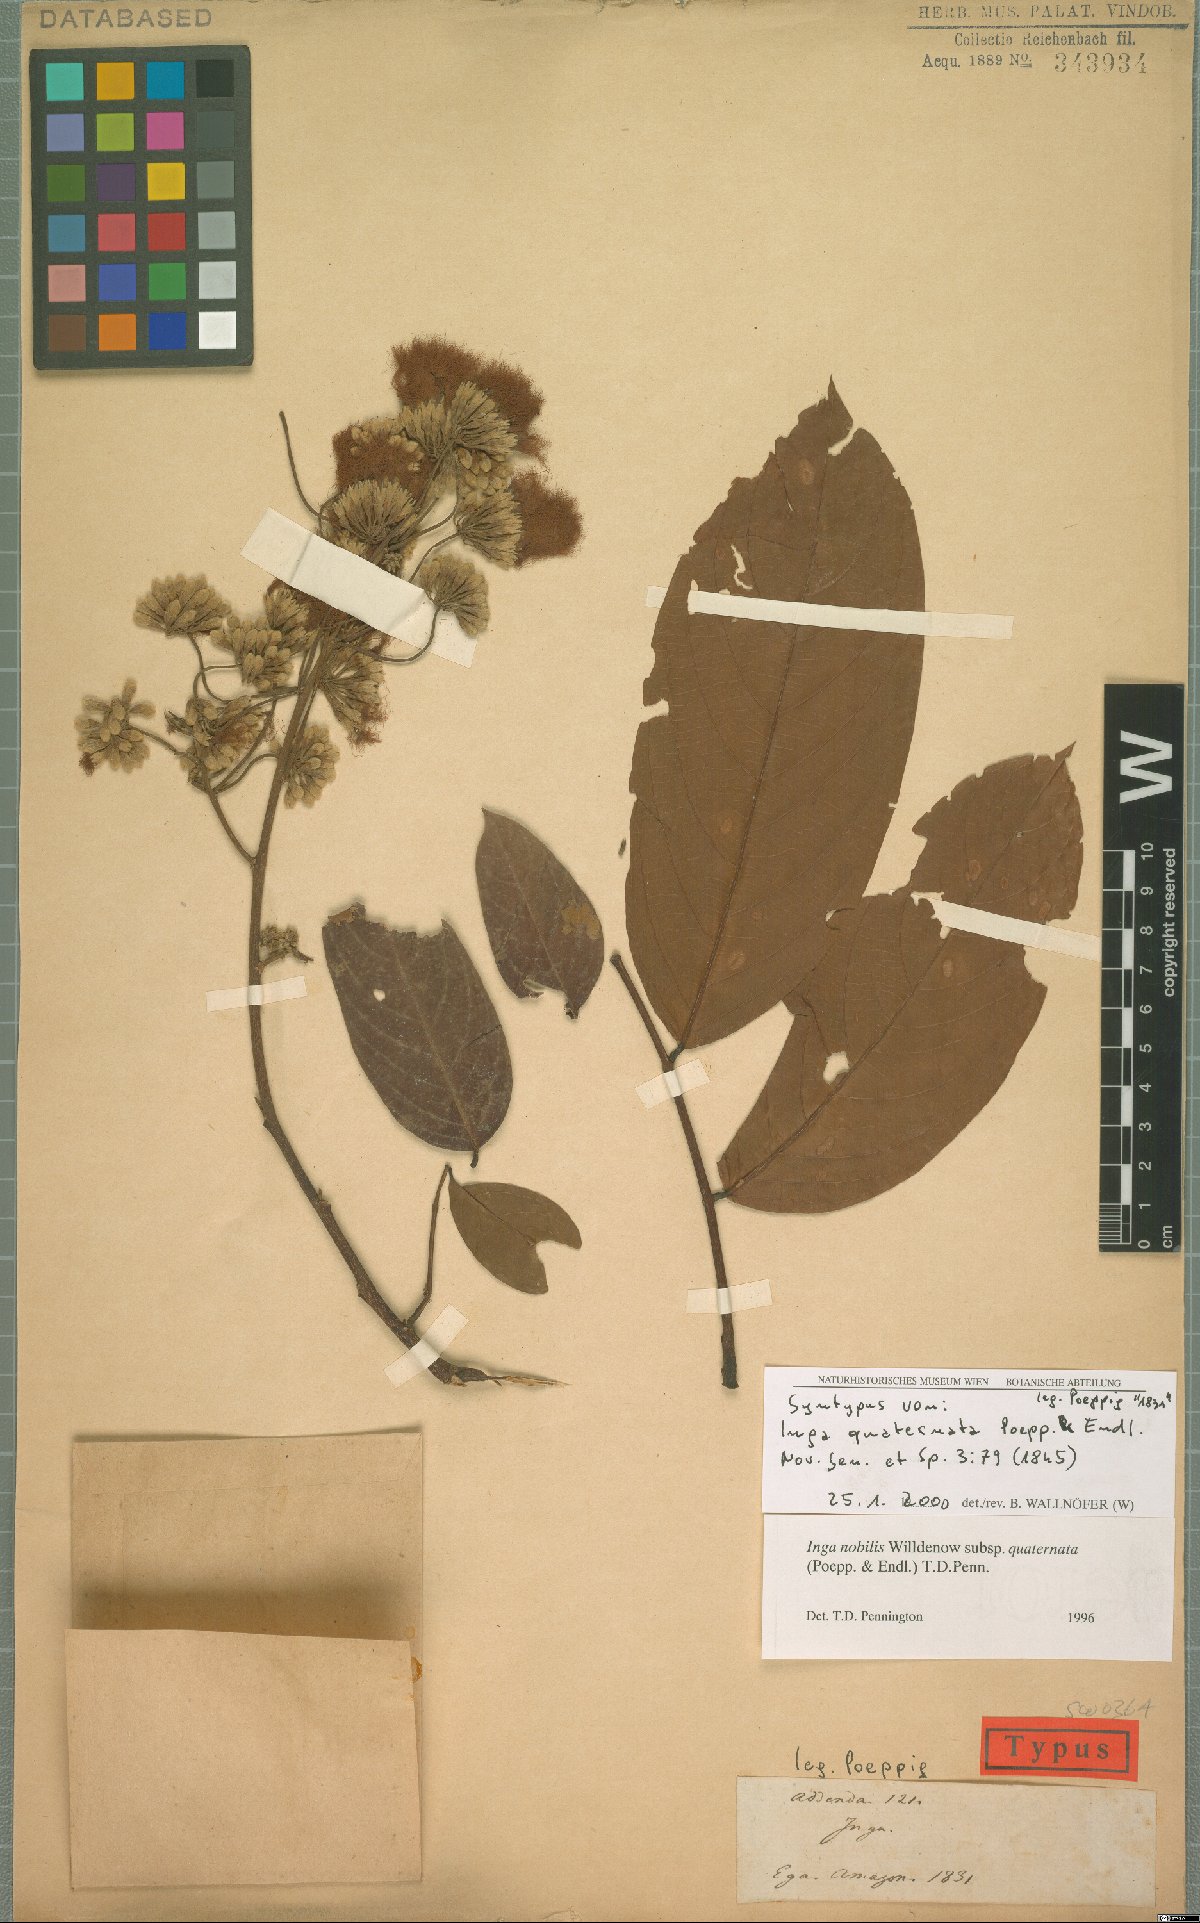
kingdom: Plantae
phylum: Tracheophyta
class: Magnoliopsida
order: Fabales
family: Fabaceae
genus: Inga
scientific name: Inga nobilis
